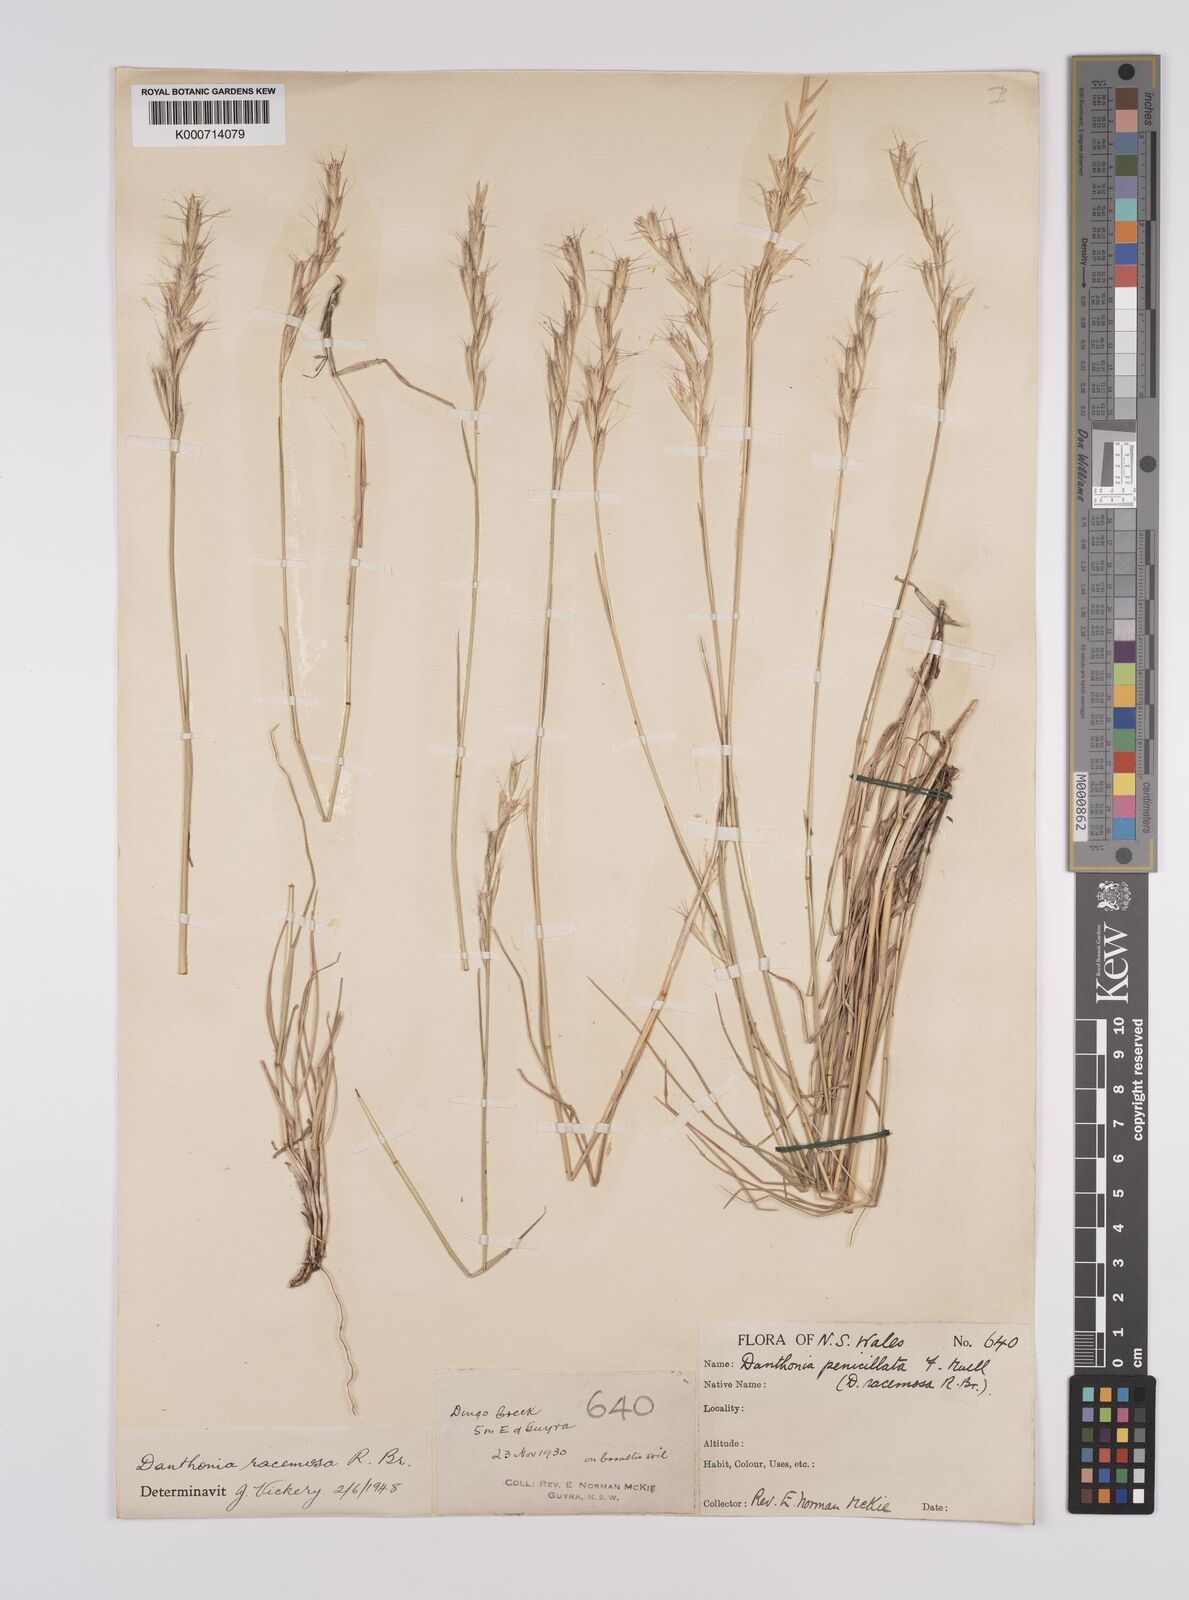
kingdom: Plantae
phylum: Tracheophyta
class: Liliopsida
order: Poales
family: Poaceae
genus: Rytidosperma
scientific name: Rytidosperma racemosum
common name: Wallaby-grass
